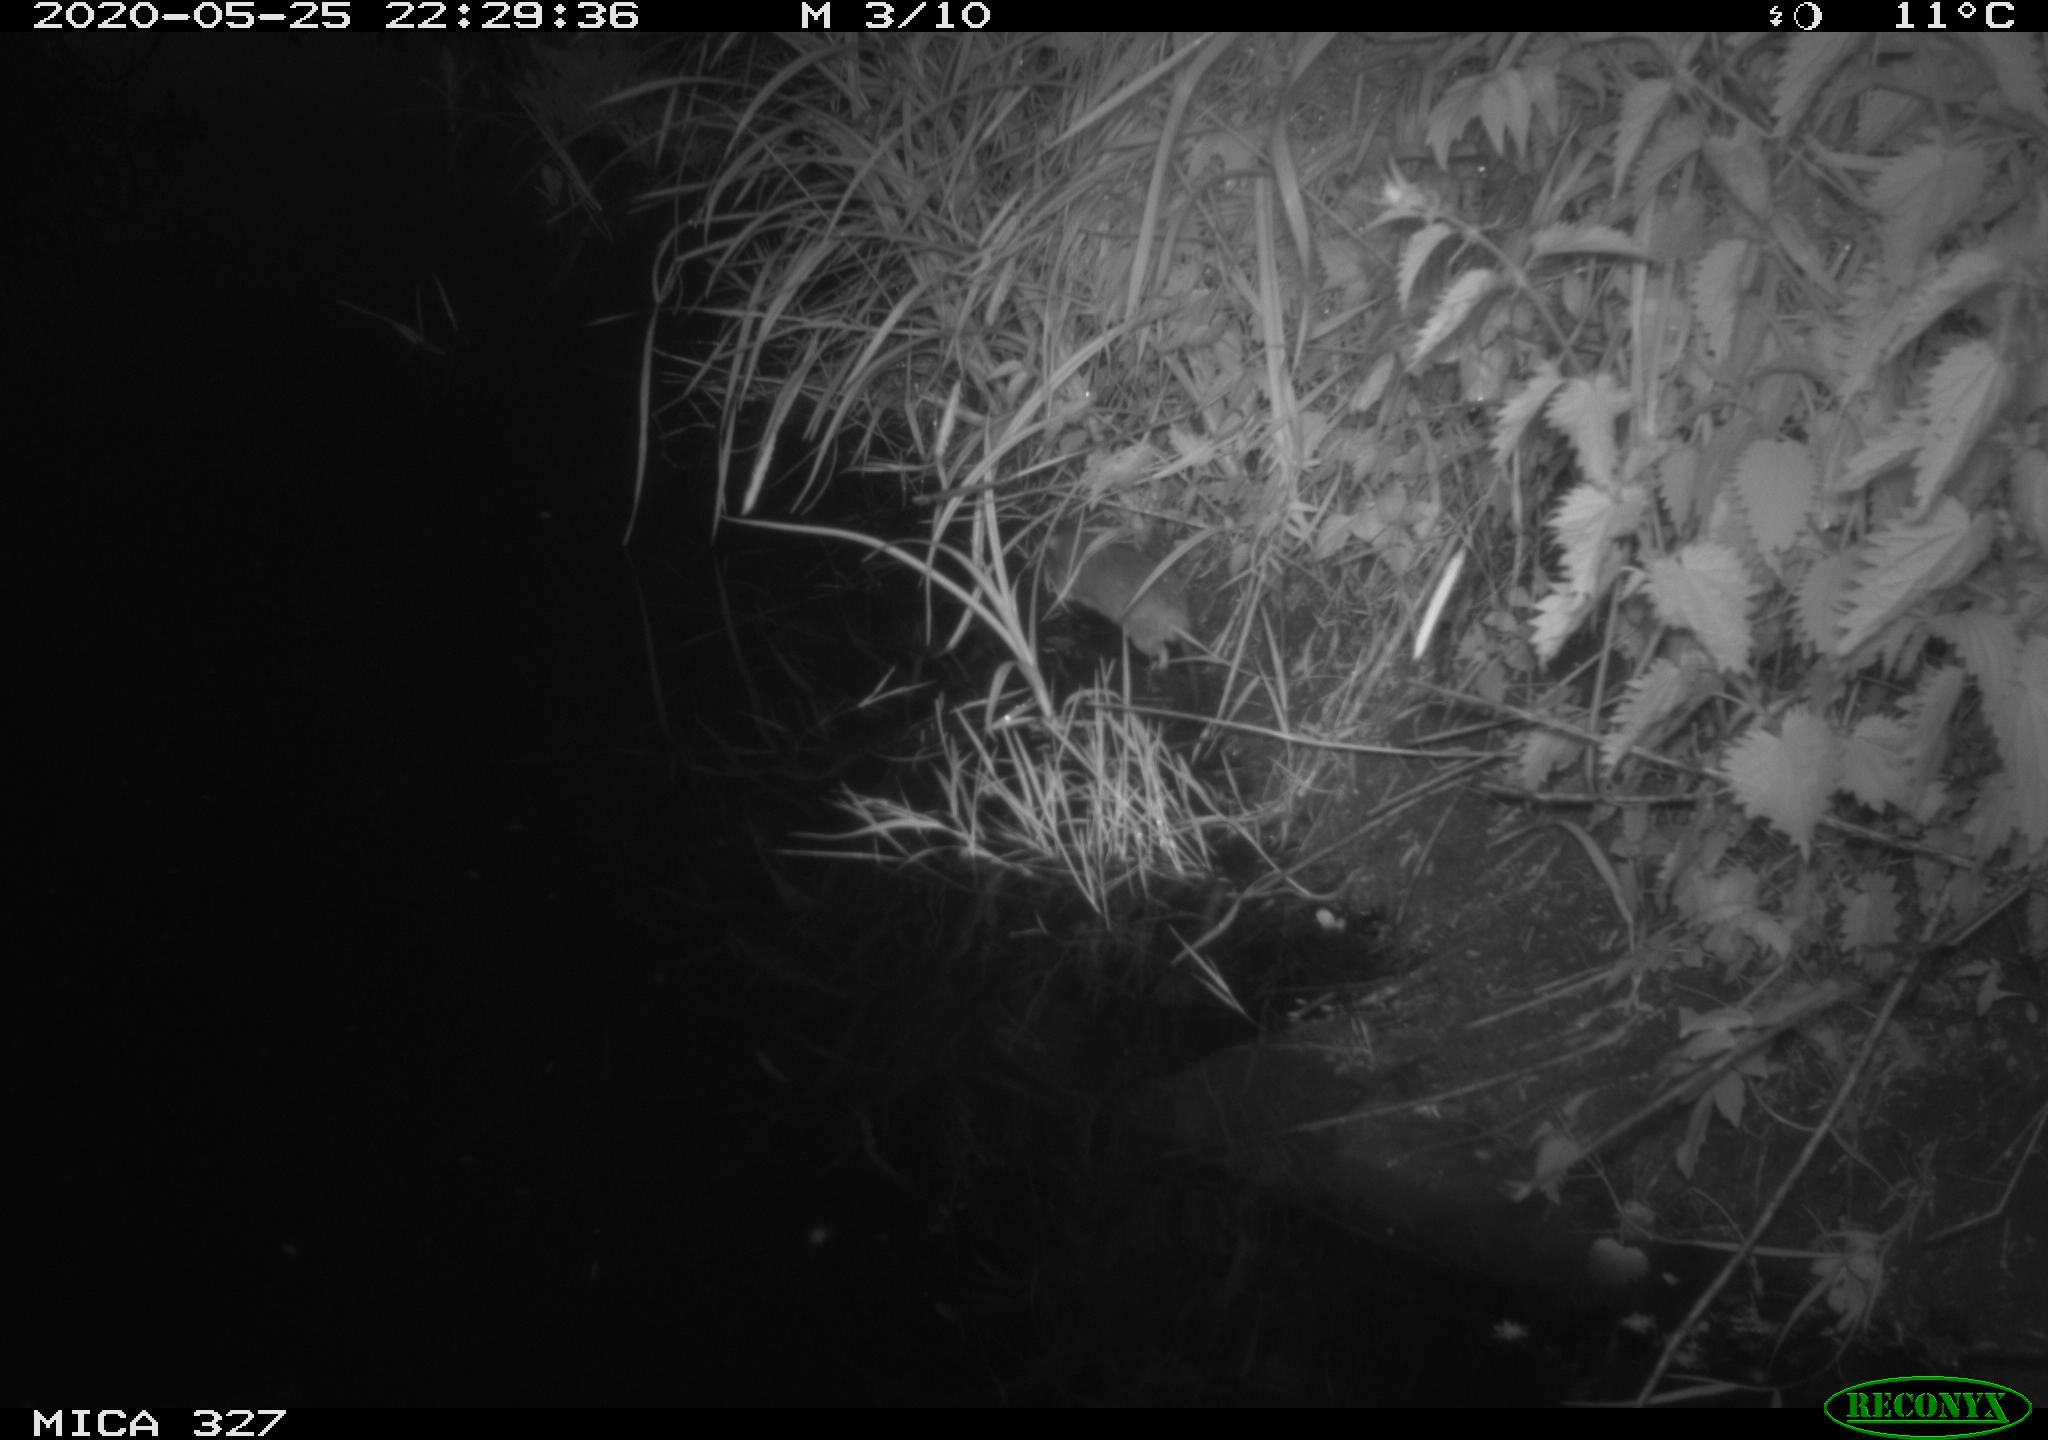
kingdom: Animalia
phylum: Chordata
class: Mammalia
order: Rodentia
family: Muridae
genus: Rattus
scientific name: Rattus norvegicus
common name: Brown rat
